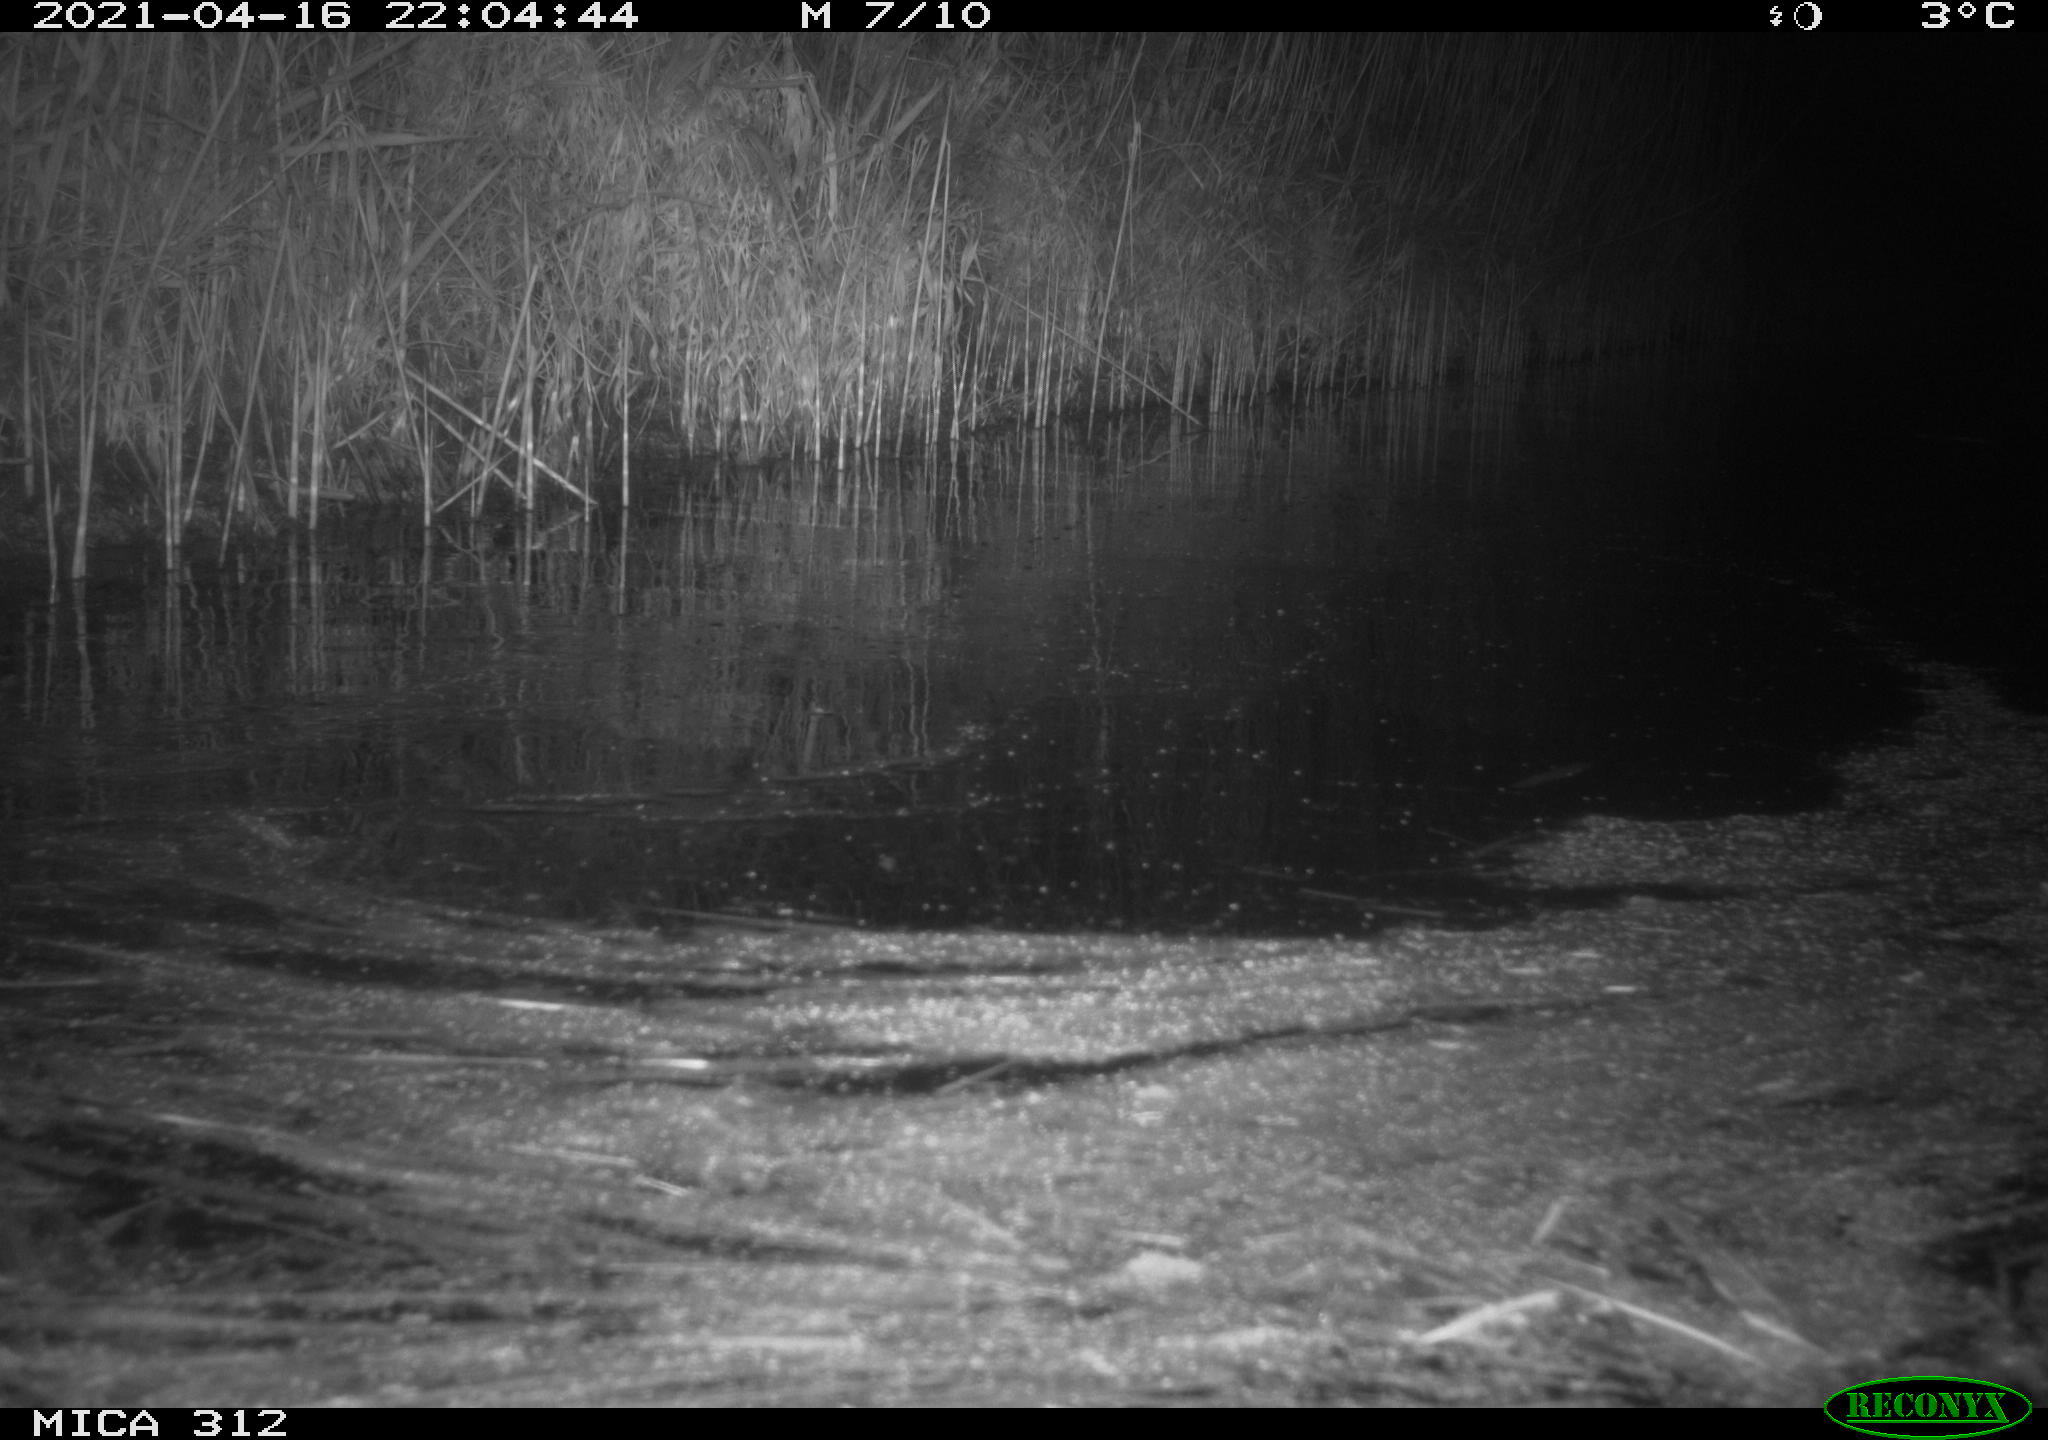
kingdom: Animalia
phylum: Chordata
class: Aves
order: Gruiformes
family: Rallidae
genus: Fulica
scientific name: Fulica atra
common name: Eurasian coot
